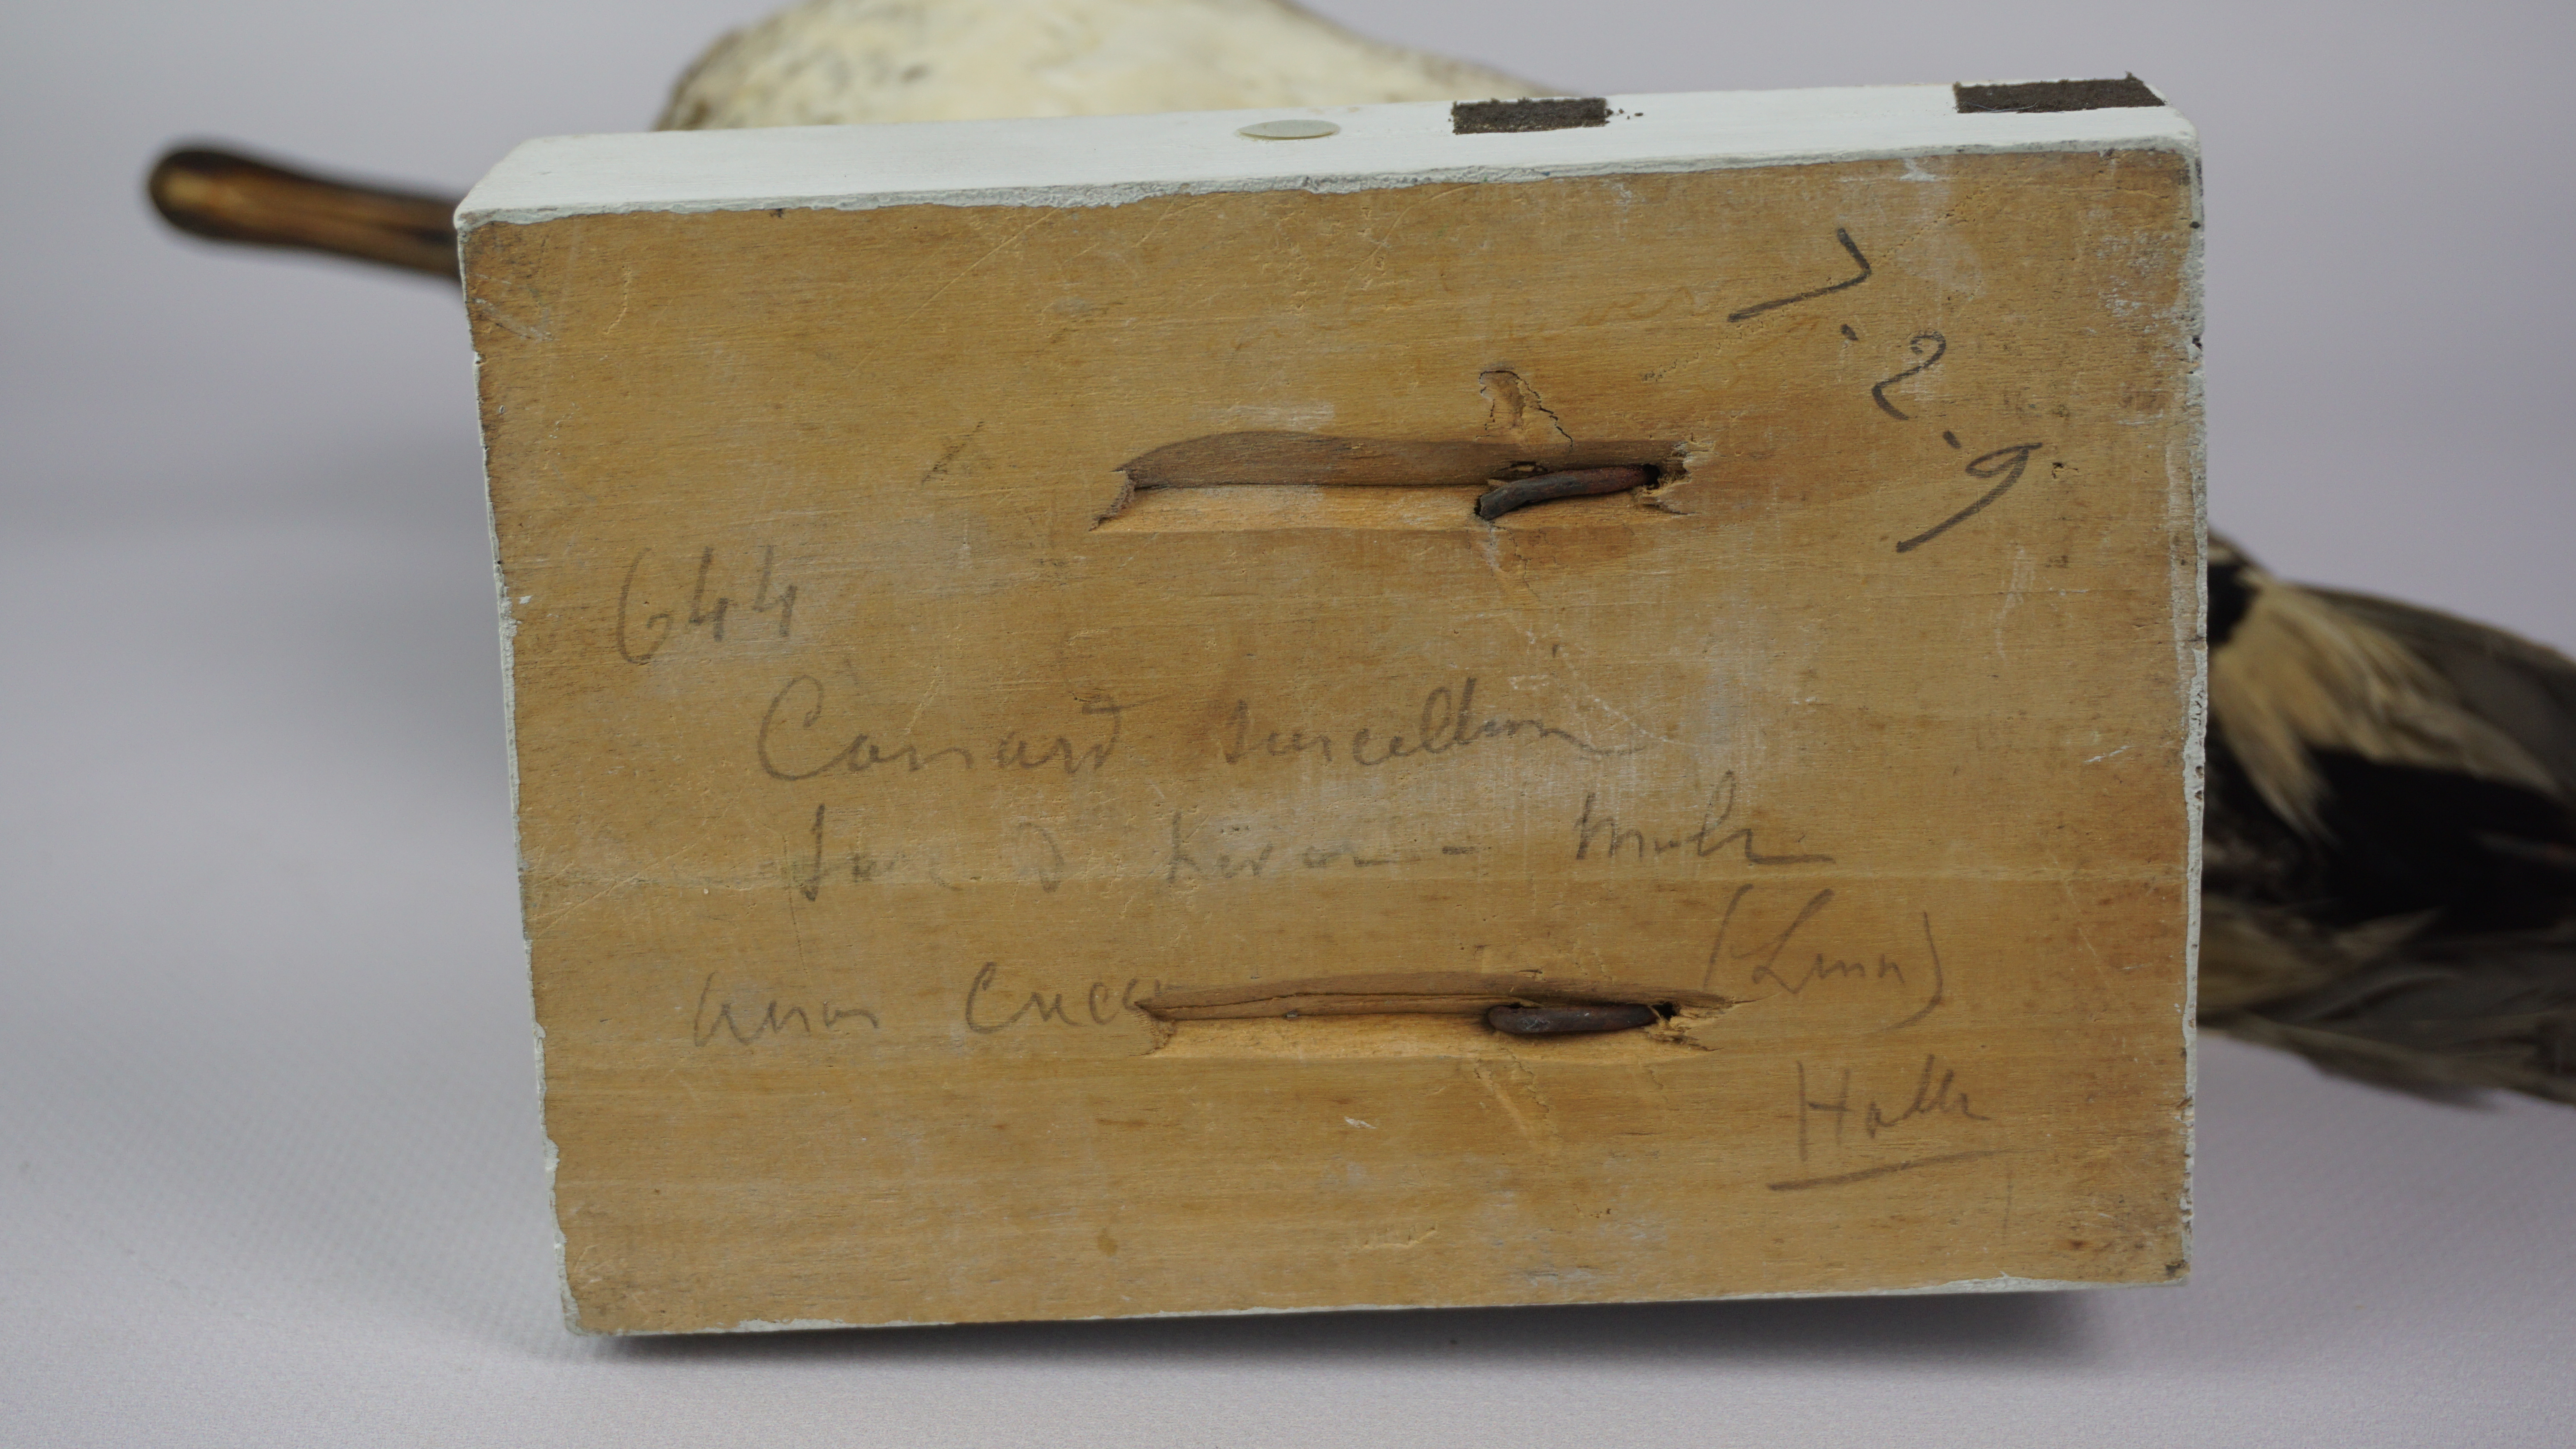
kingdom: Animalia
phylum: Chordata
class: Aves
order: Anseriformes
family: Anatidae
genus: Anas
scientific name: Anas crecca
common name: Eurasian teal
